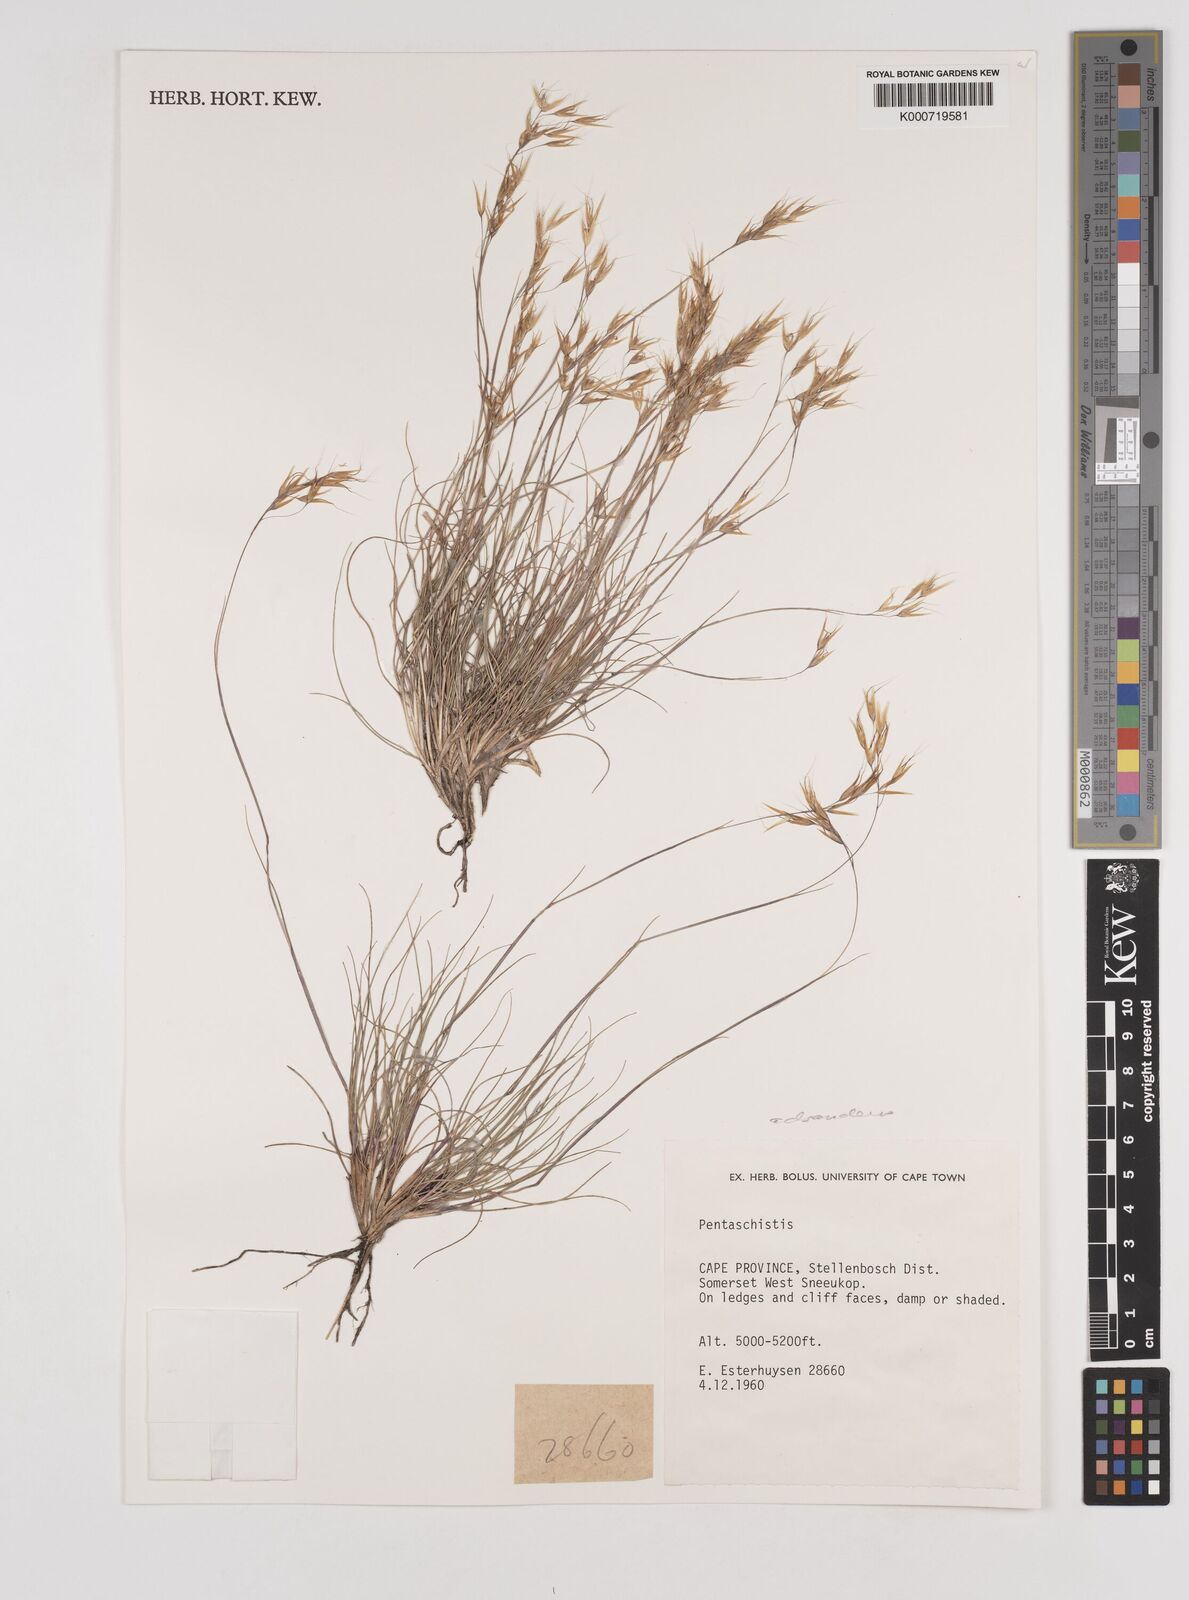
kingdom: Plantae
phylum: Tracheophyta
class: Liliopsida
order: Poales
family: Poaceae
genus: Pentameris
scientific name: Pentameris rigidissima
